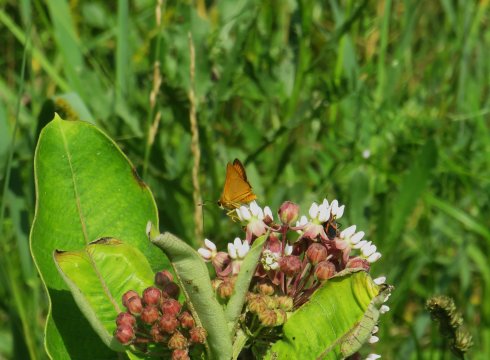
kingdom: Animalia
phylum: Arthropoda
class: Insecta
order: Lepidoptera
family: Hesperiidae
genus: Atrytone
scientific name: Atrytone delaware
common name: Delaware Skipper
